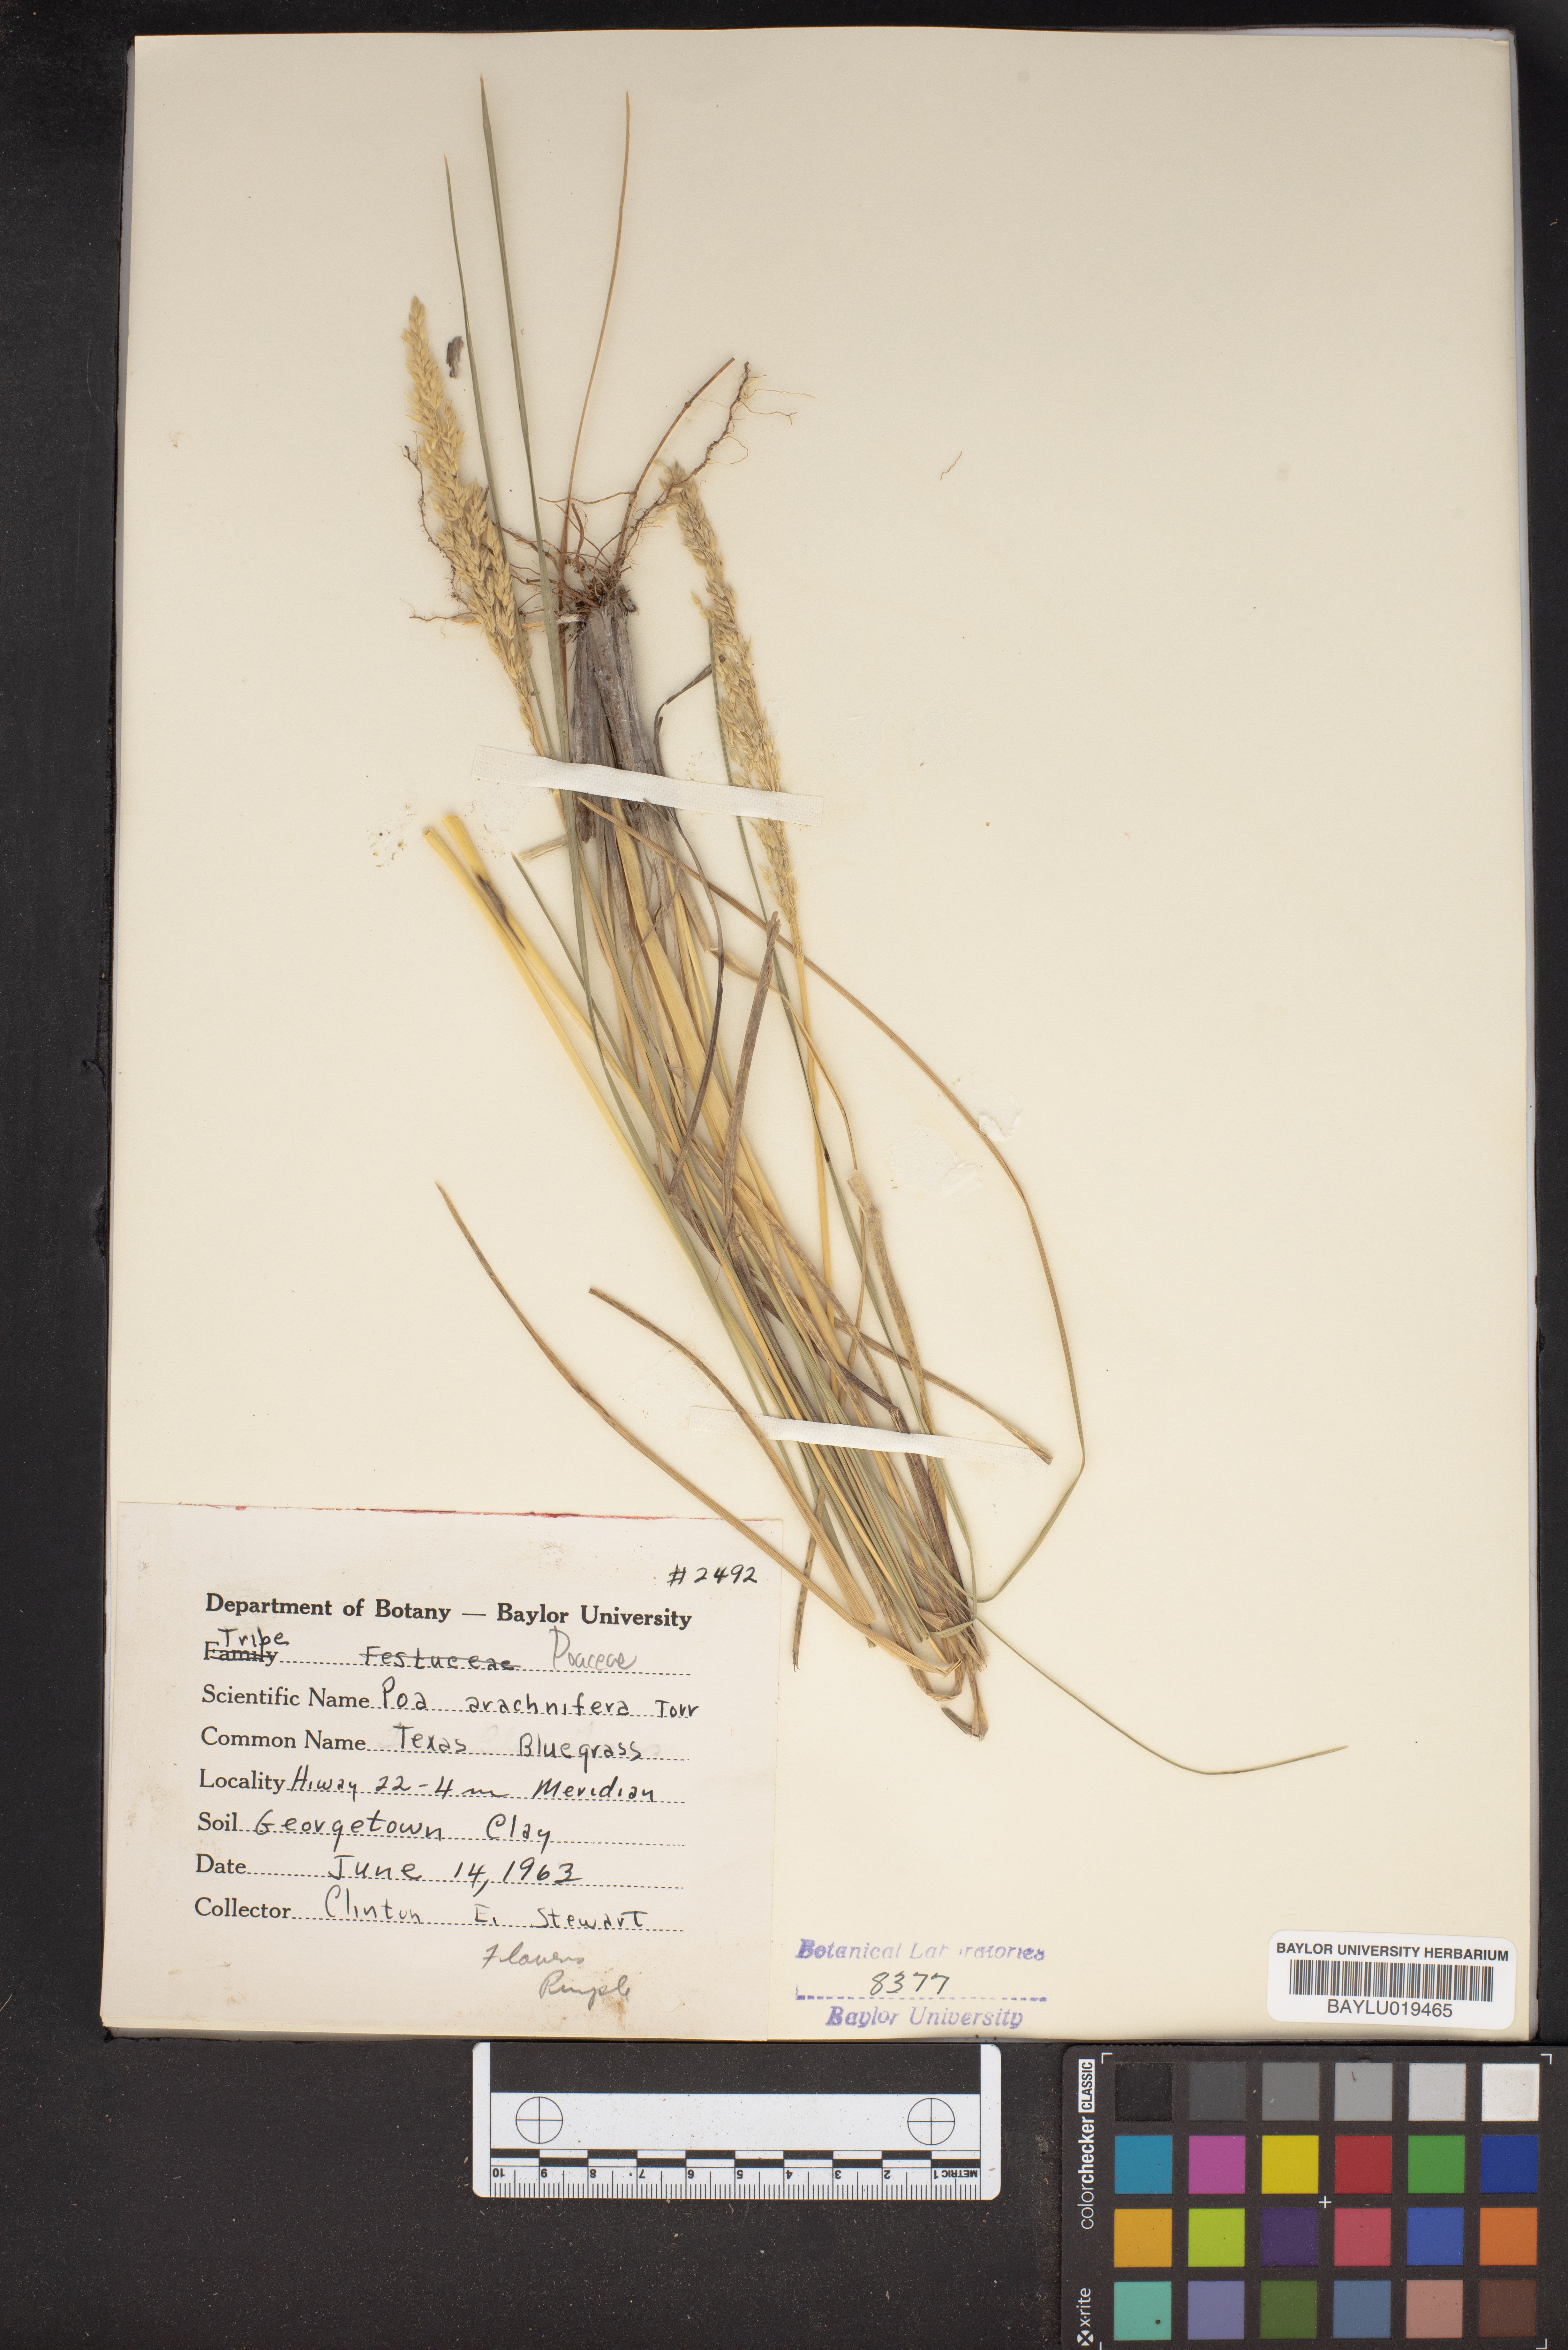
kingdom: Plantae
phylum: Tracheophyta
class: Liliopsida
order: Poales
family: Poaceae
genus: Poa
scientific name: Poa arachnifera
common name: Texas bluegrass
